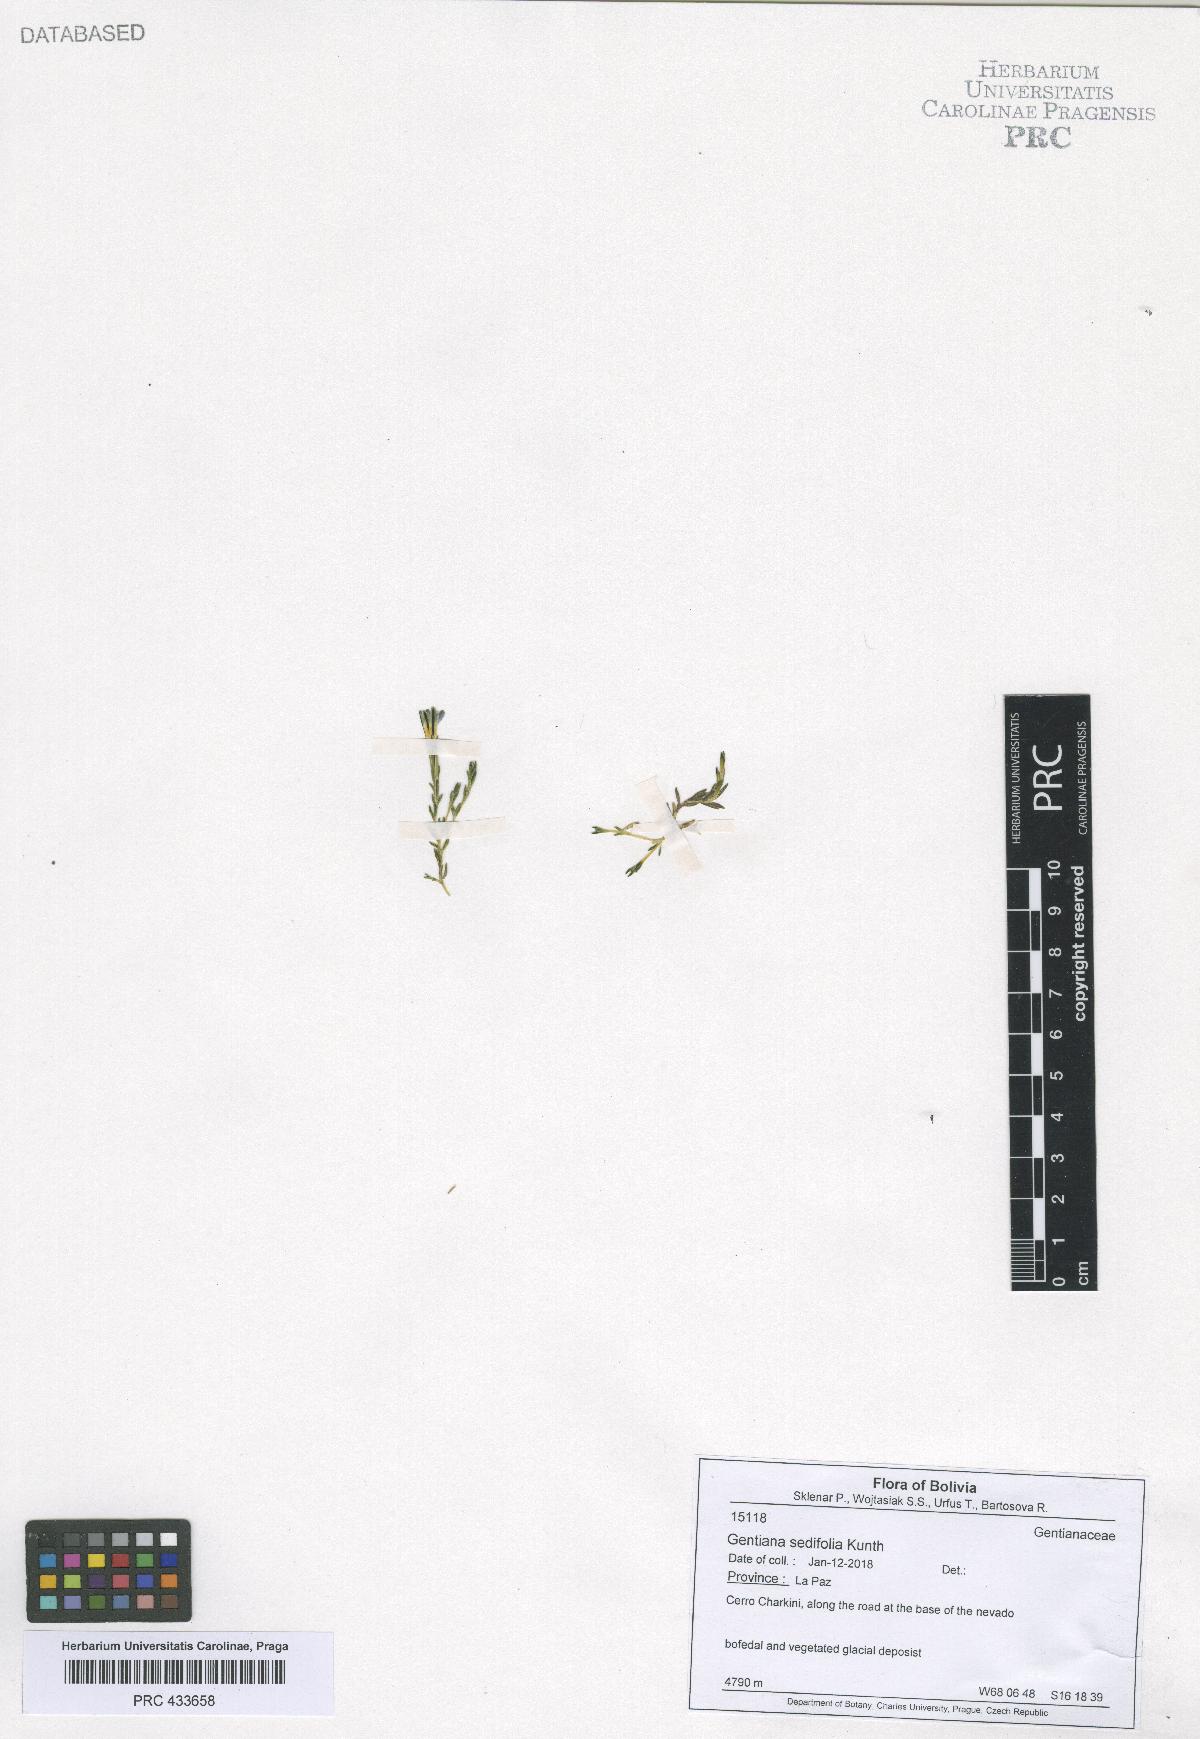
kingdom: Plantae
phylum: Tracheophyta
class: Magnoliopsida
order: Gentianales
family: Gentianaceae
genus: Gentiana
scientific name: Gentiana sedifolia
